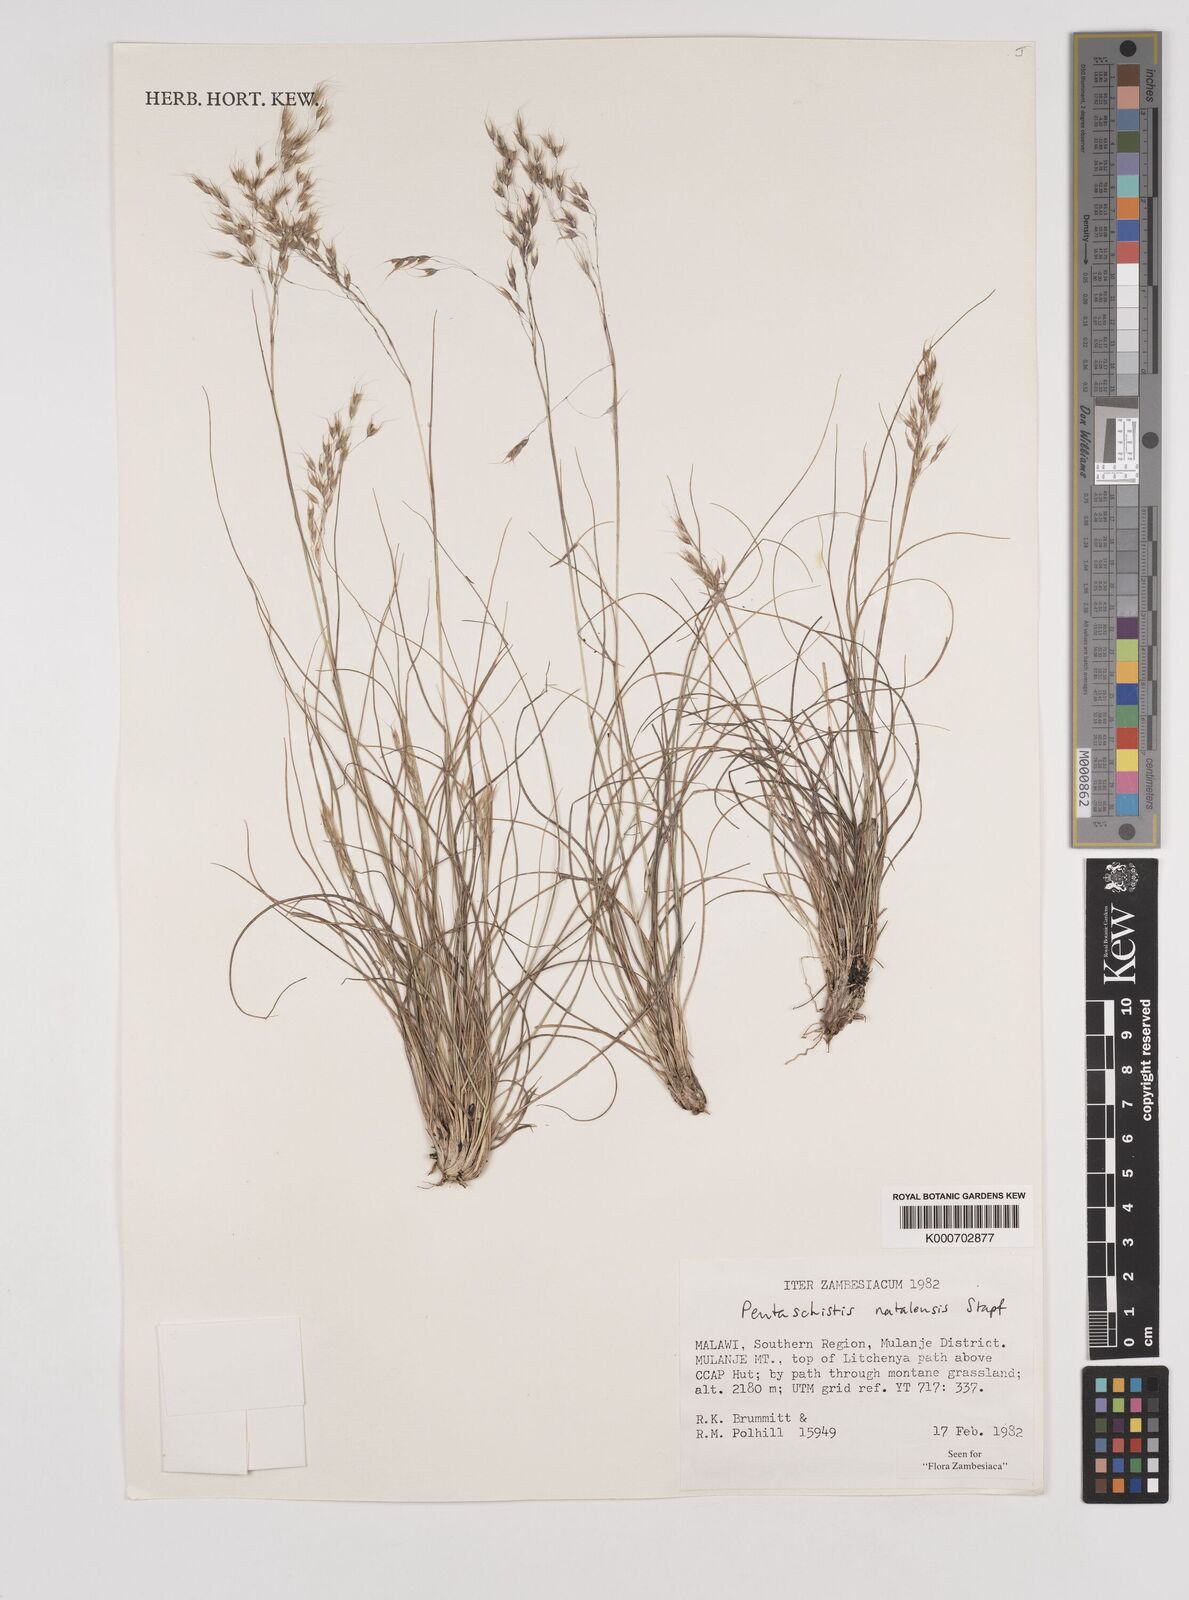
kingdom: Plantae
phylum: Tracheophyta
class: Liliopsida
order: Poales
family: Poaceae
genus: Pentameris
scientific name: Pentameris natalensis
